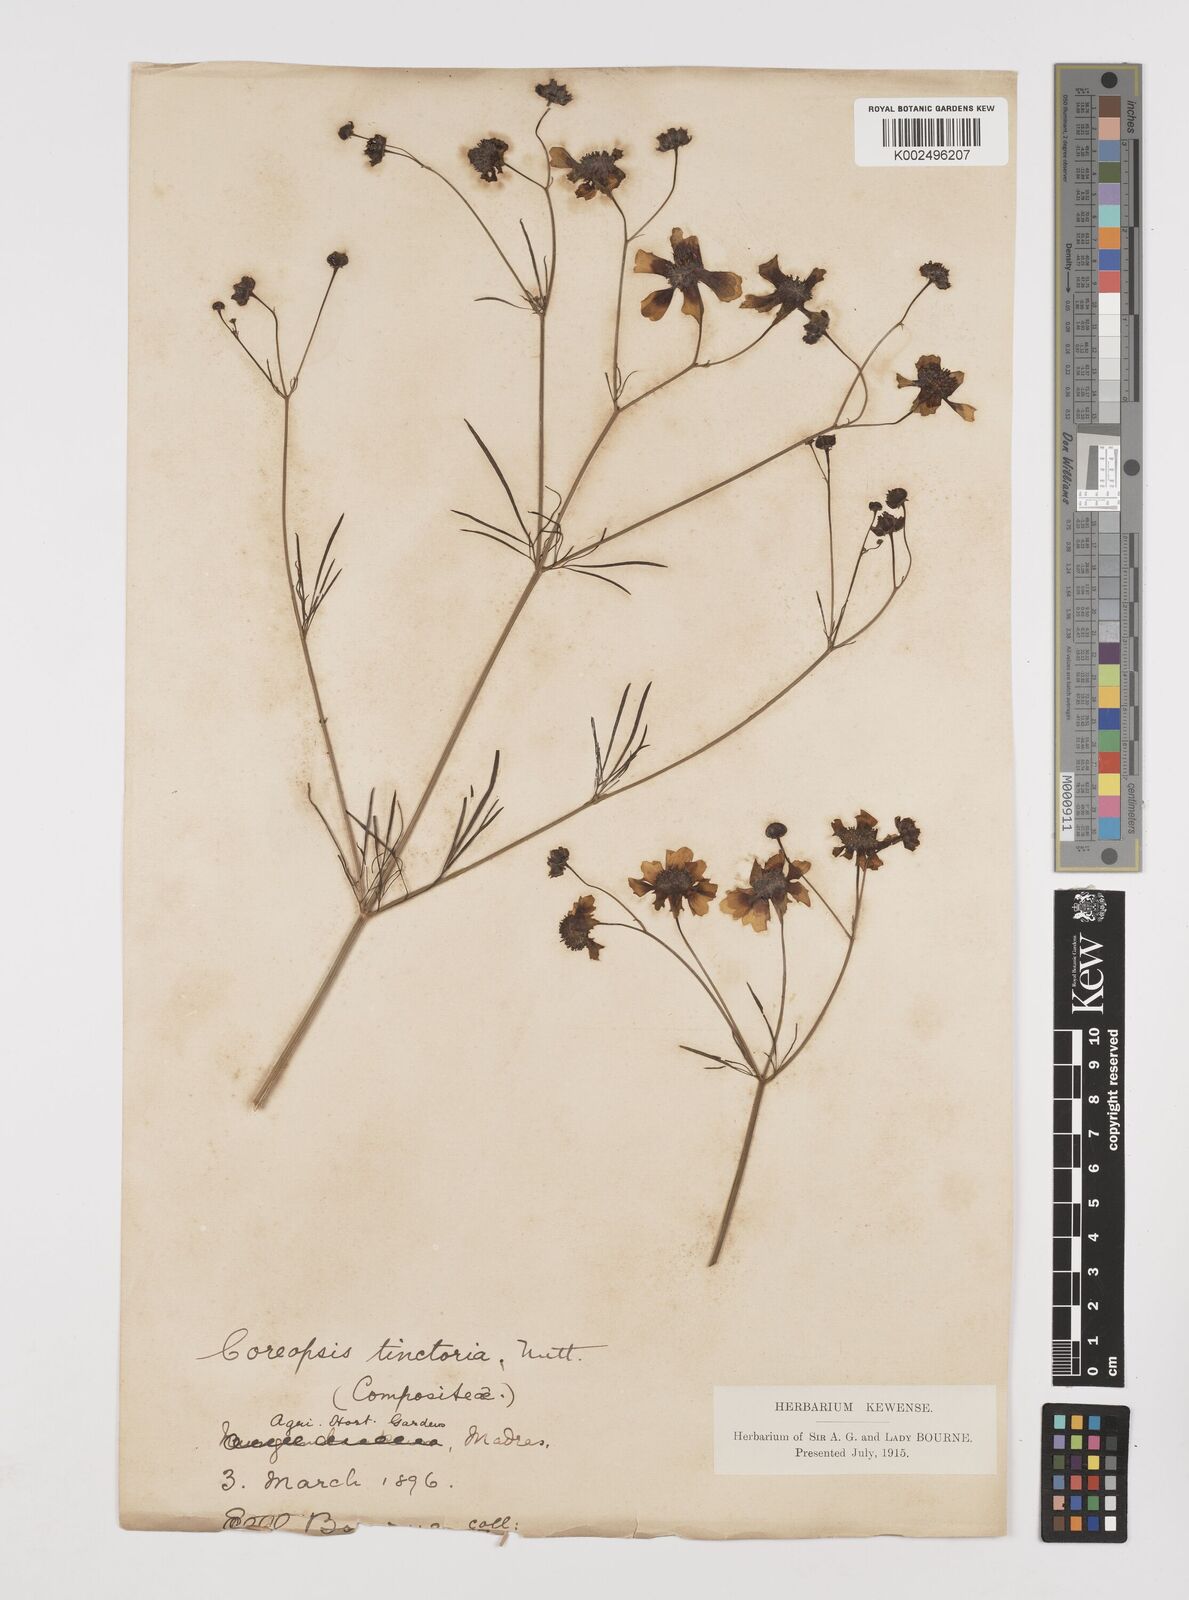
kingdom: Plantae
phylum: Tracheophyta
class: Magnoliopsida
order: Asterales
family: Asteraceae
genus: Coreopsis
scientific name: Coreopsis tinctoria
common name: Garden tickseed
